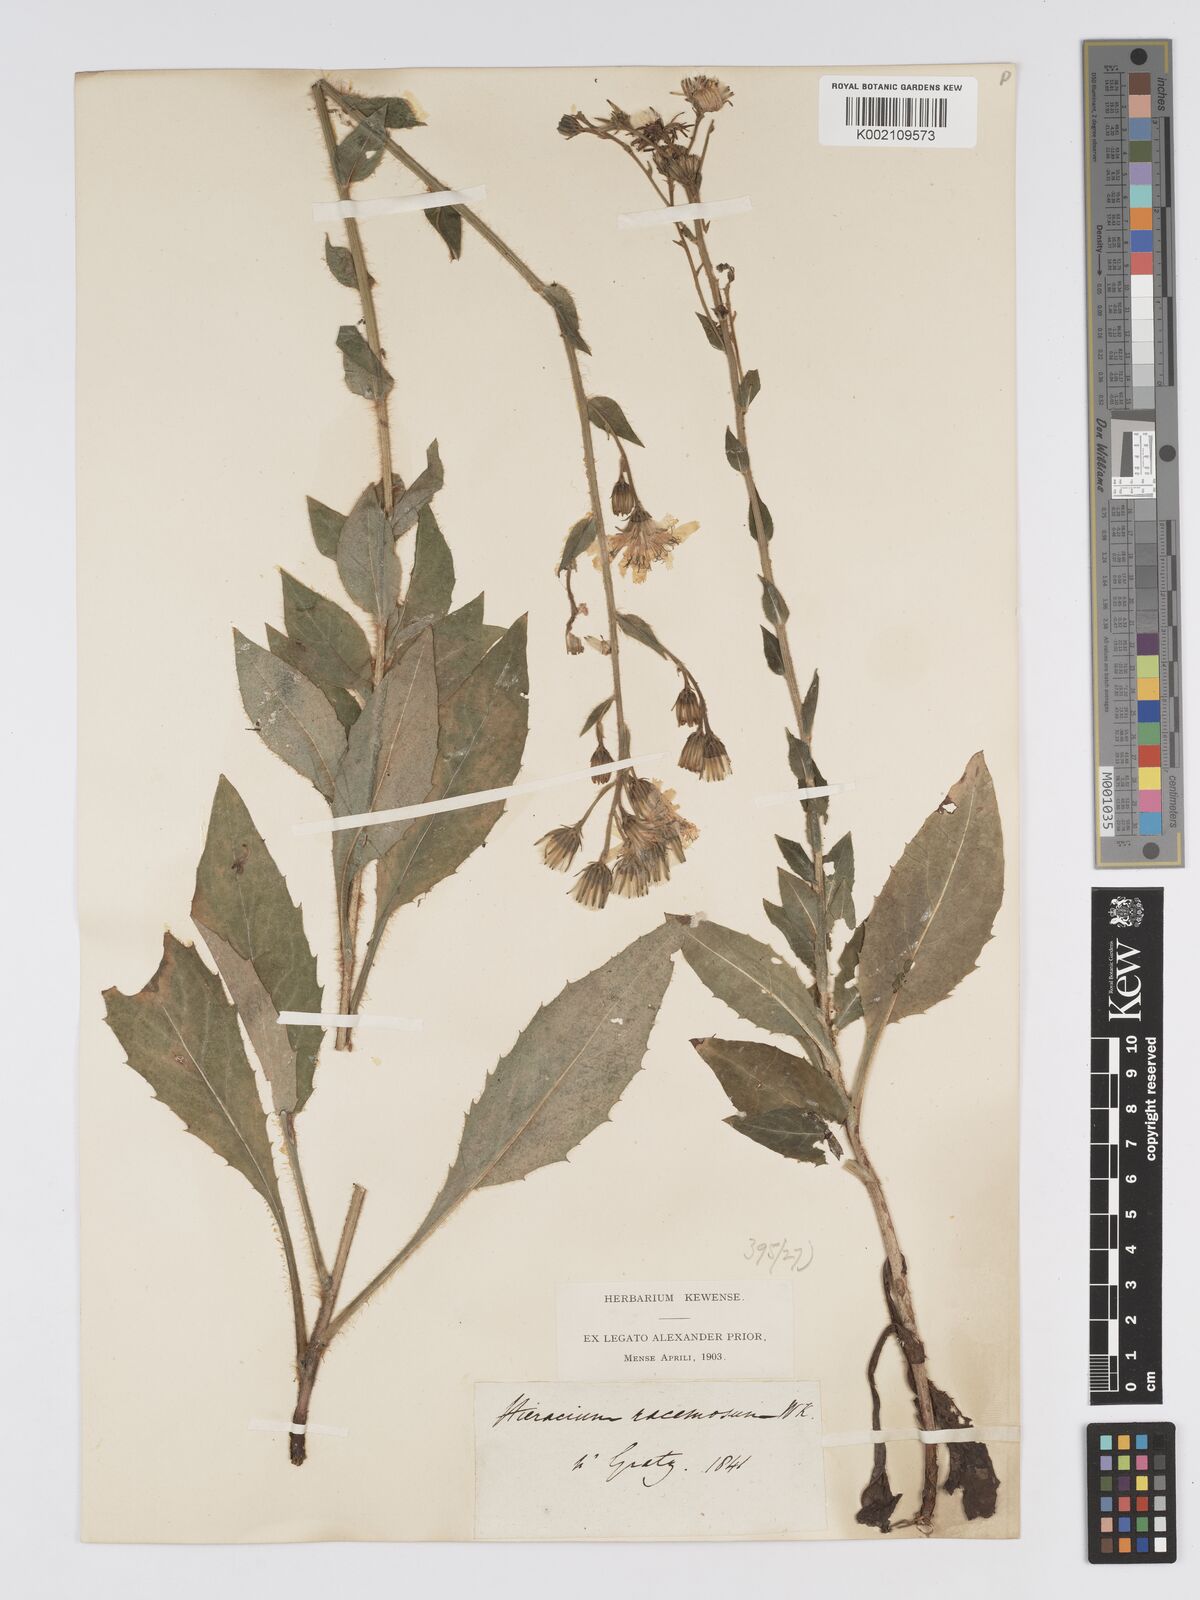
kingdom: Plantae
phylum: Tracheophyta
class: Magnoliopsida
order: Asterales
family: Asteraceae
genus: Hieracium
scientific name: Hieracium racemosum
